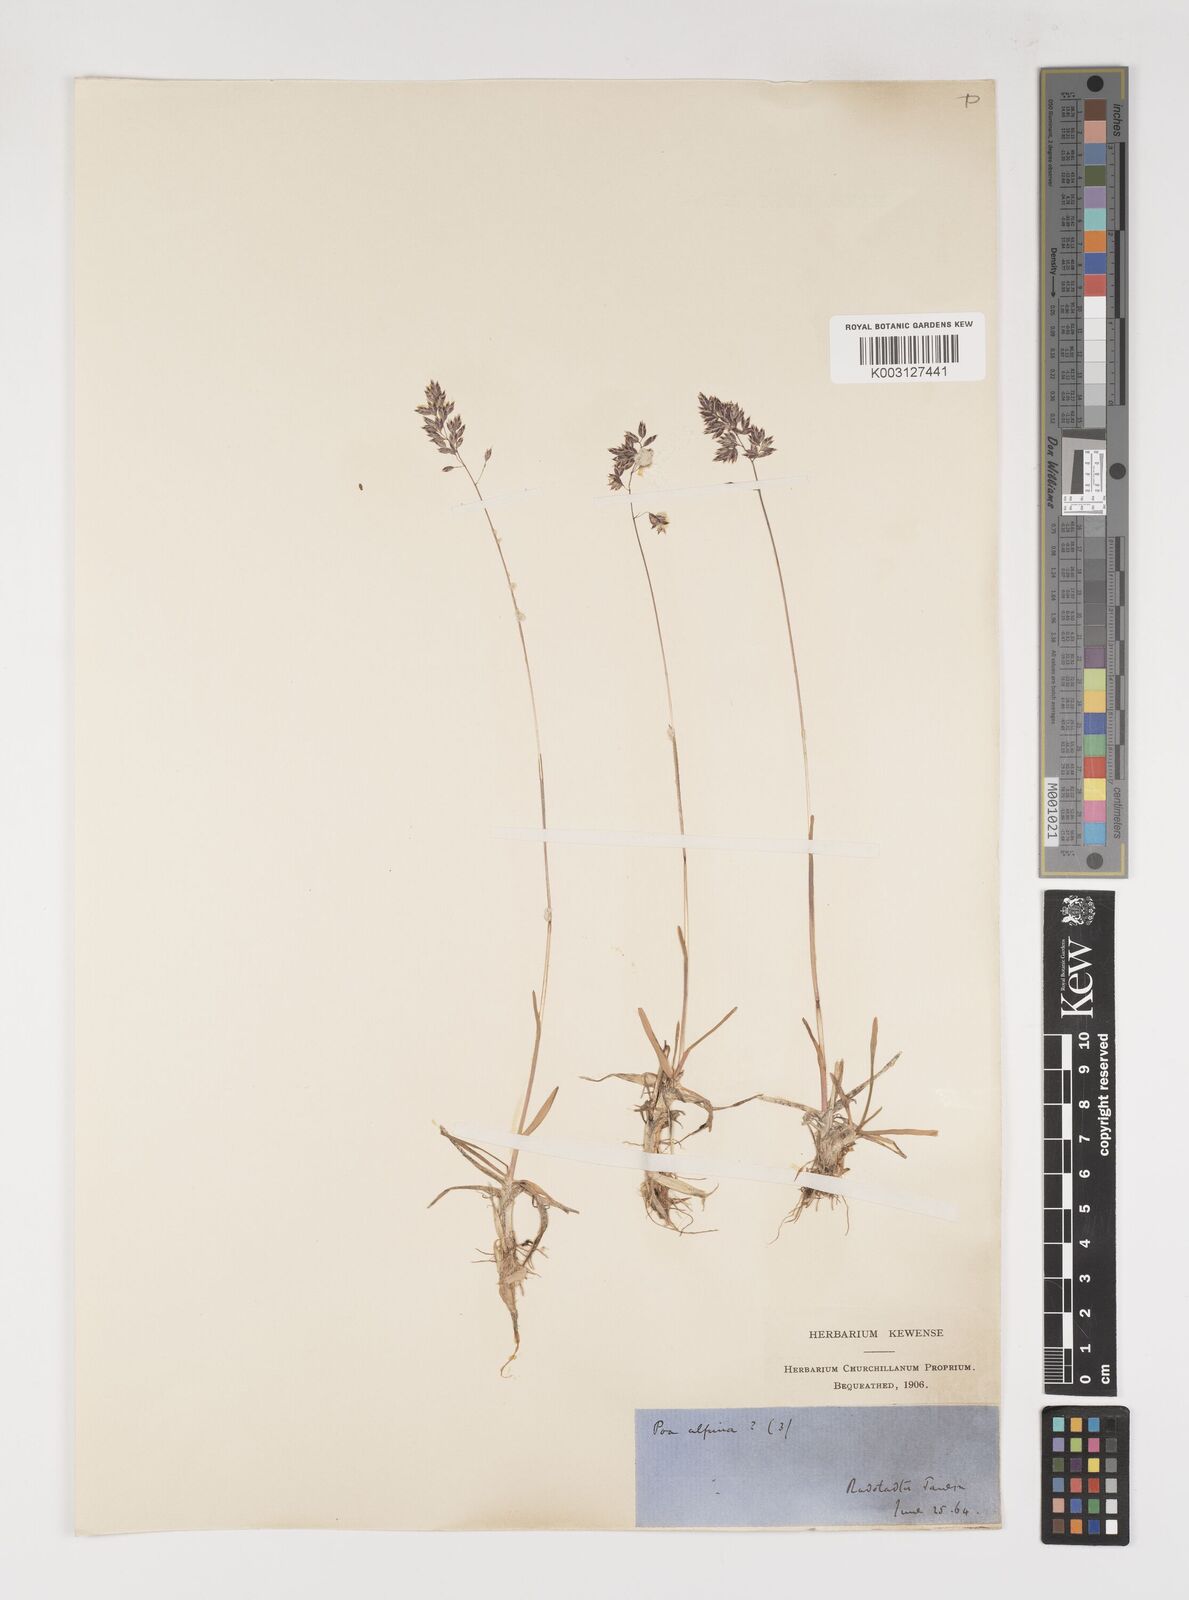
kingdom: Plantae
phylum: Tracheophyta
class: Liliopsida
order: Poales
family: Poaceae
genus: Poa
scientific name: Poa alpina
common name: Alpine bluegrass
